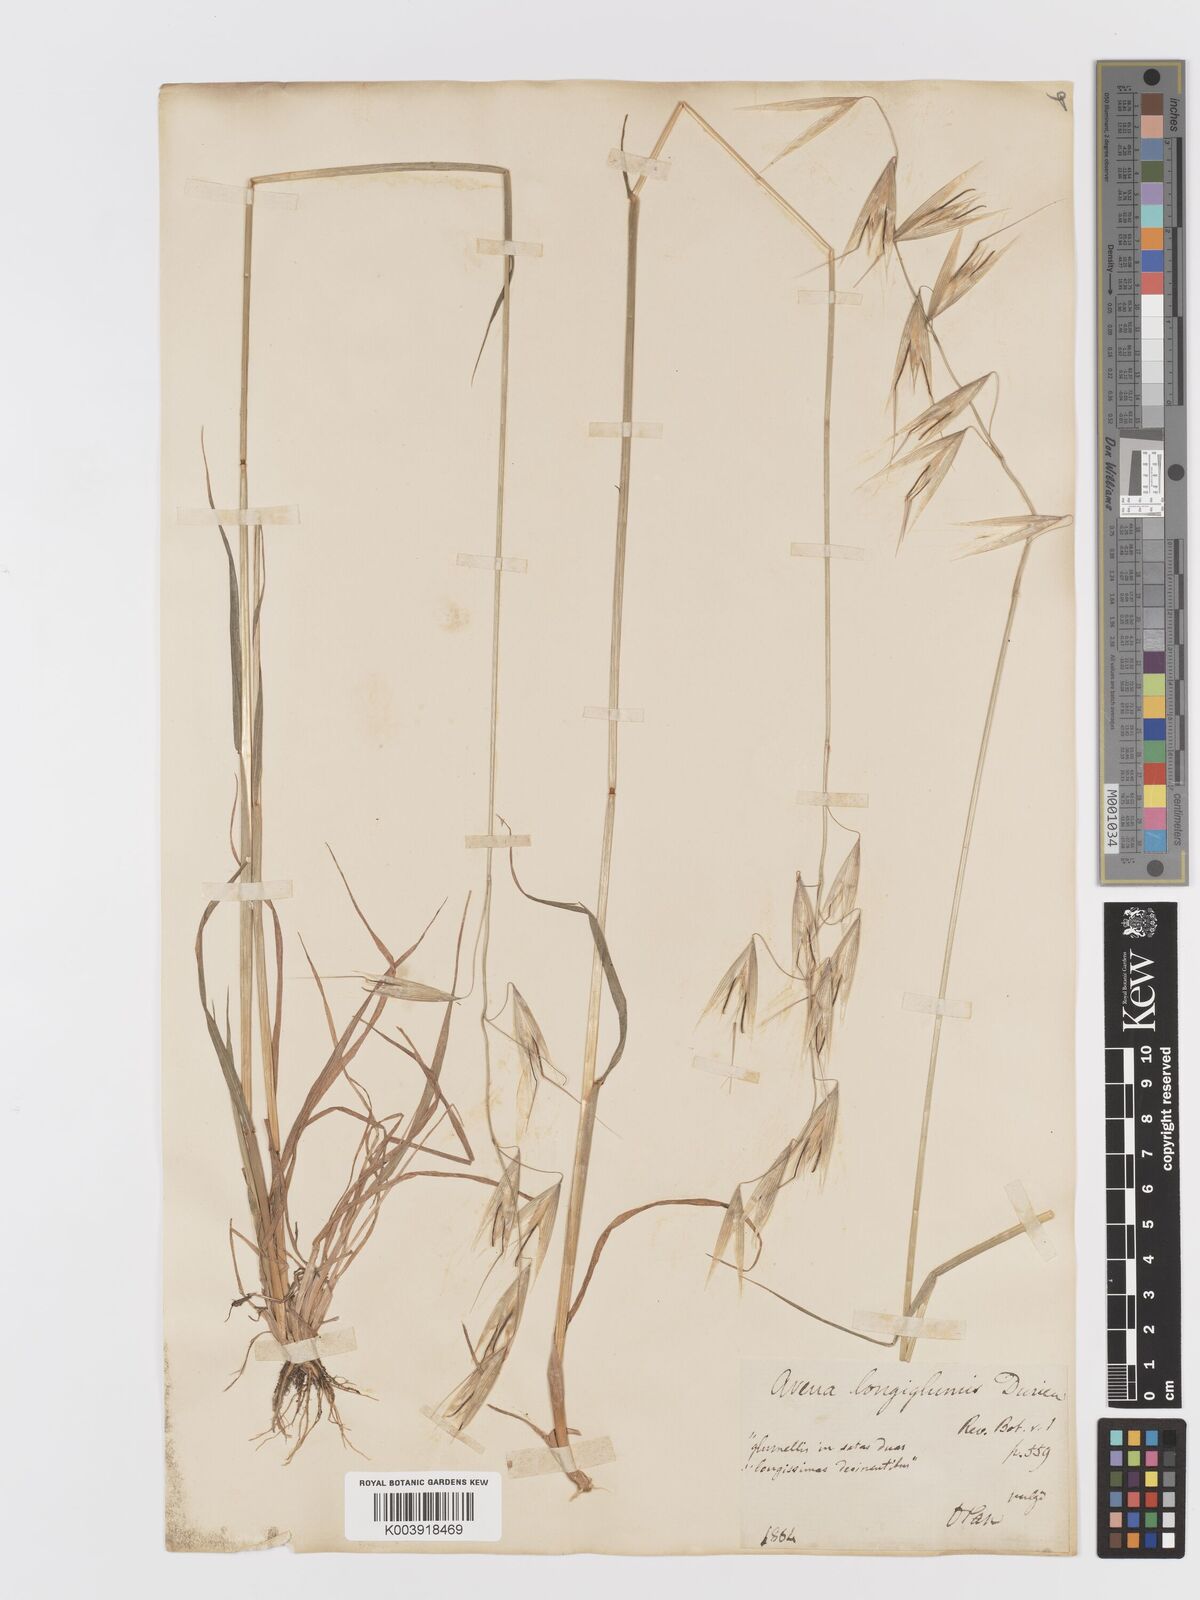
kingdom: Plantae
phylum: Tracheophyta
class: Liliopsida
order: Poales
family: Poaceae
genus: Avena
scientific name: Avena longiglumis
